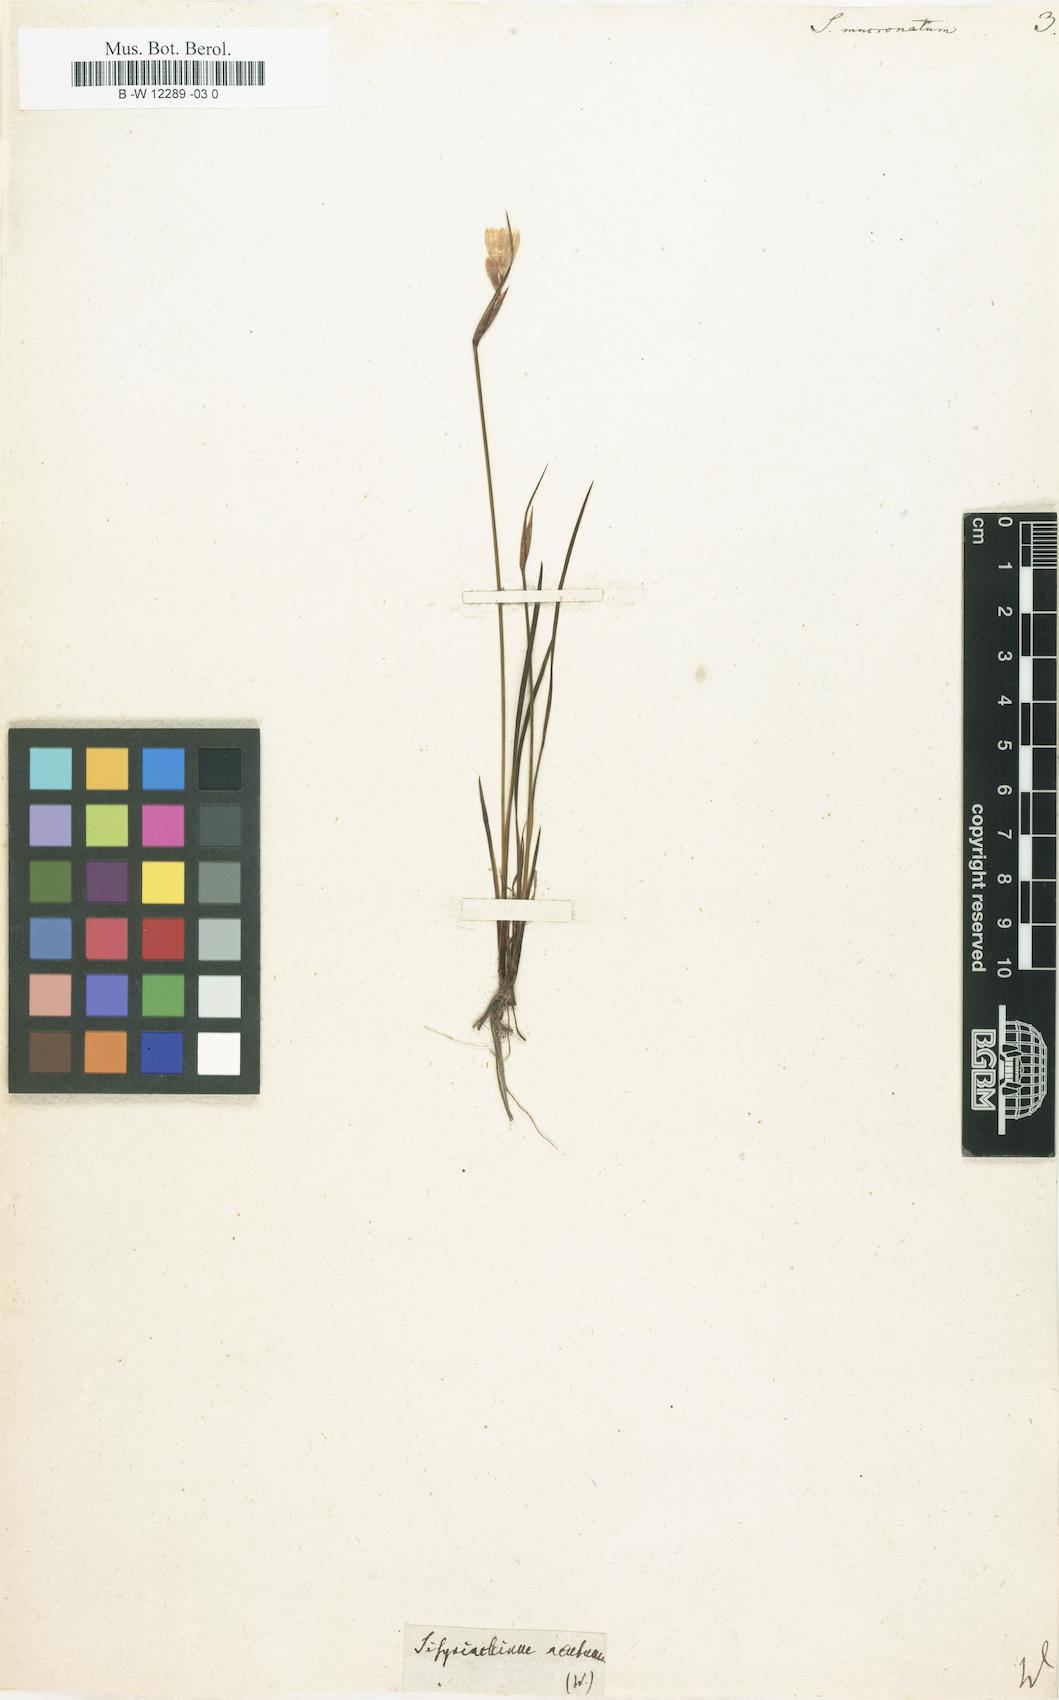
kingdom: Plantae
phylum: Tracheophyta
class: Liliopsida
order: Asparagales
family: Iridaceae
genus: Sisyrinchium
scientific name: Sisyrinchium mucronatum
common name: Eastern blue-eyed-grass
